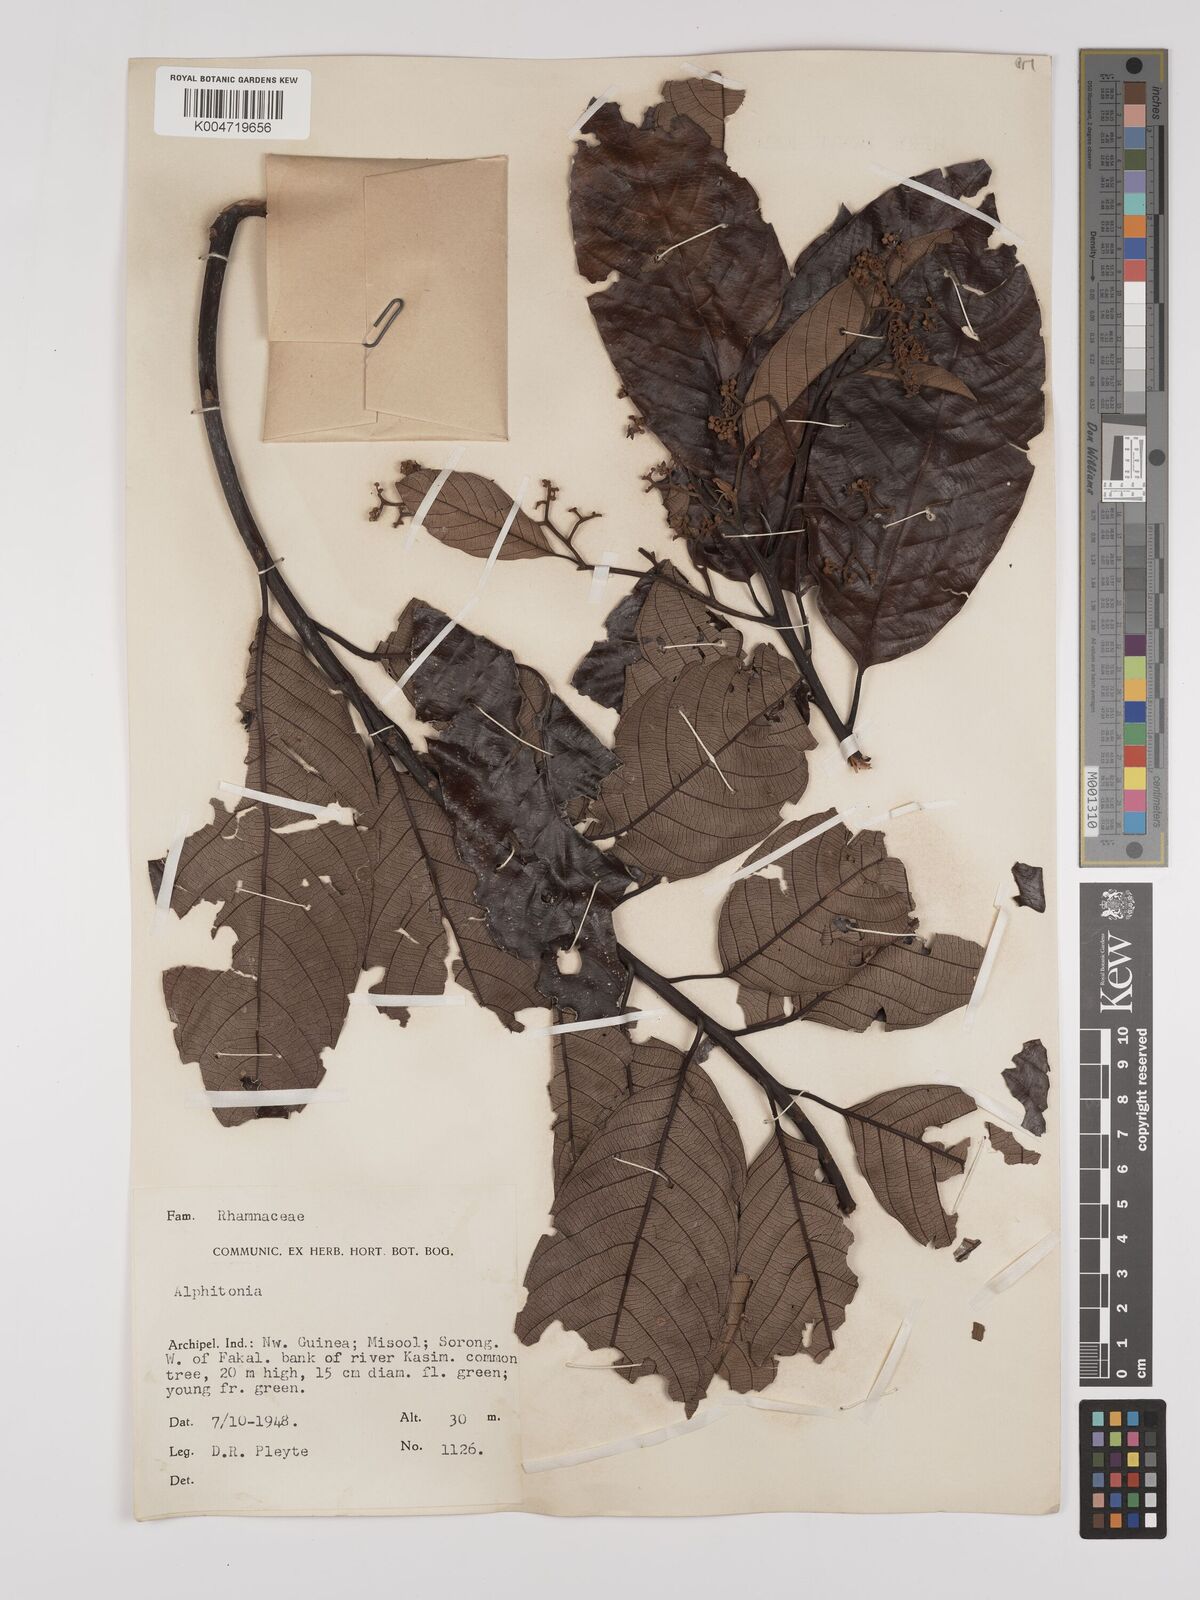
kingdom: Plantae
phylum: Tracheophyta
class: Magnoliopsida
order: Rosales
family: Rhamnaceae
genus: Alphitonia
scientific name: Alphitonia
